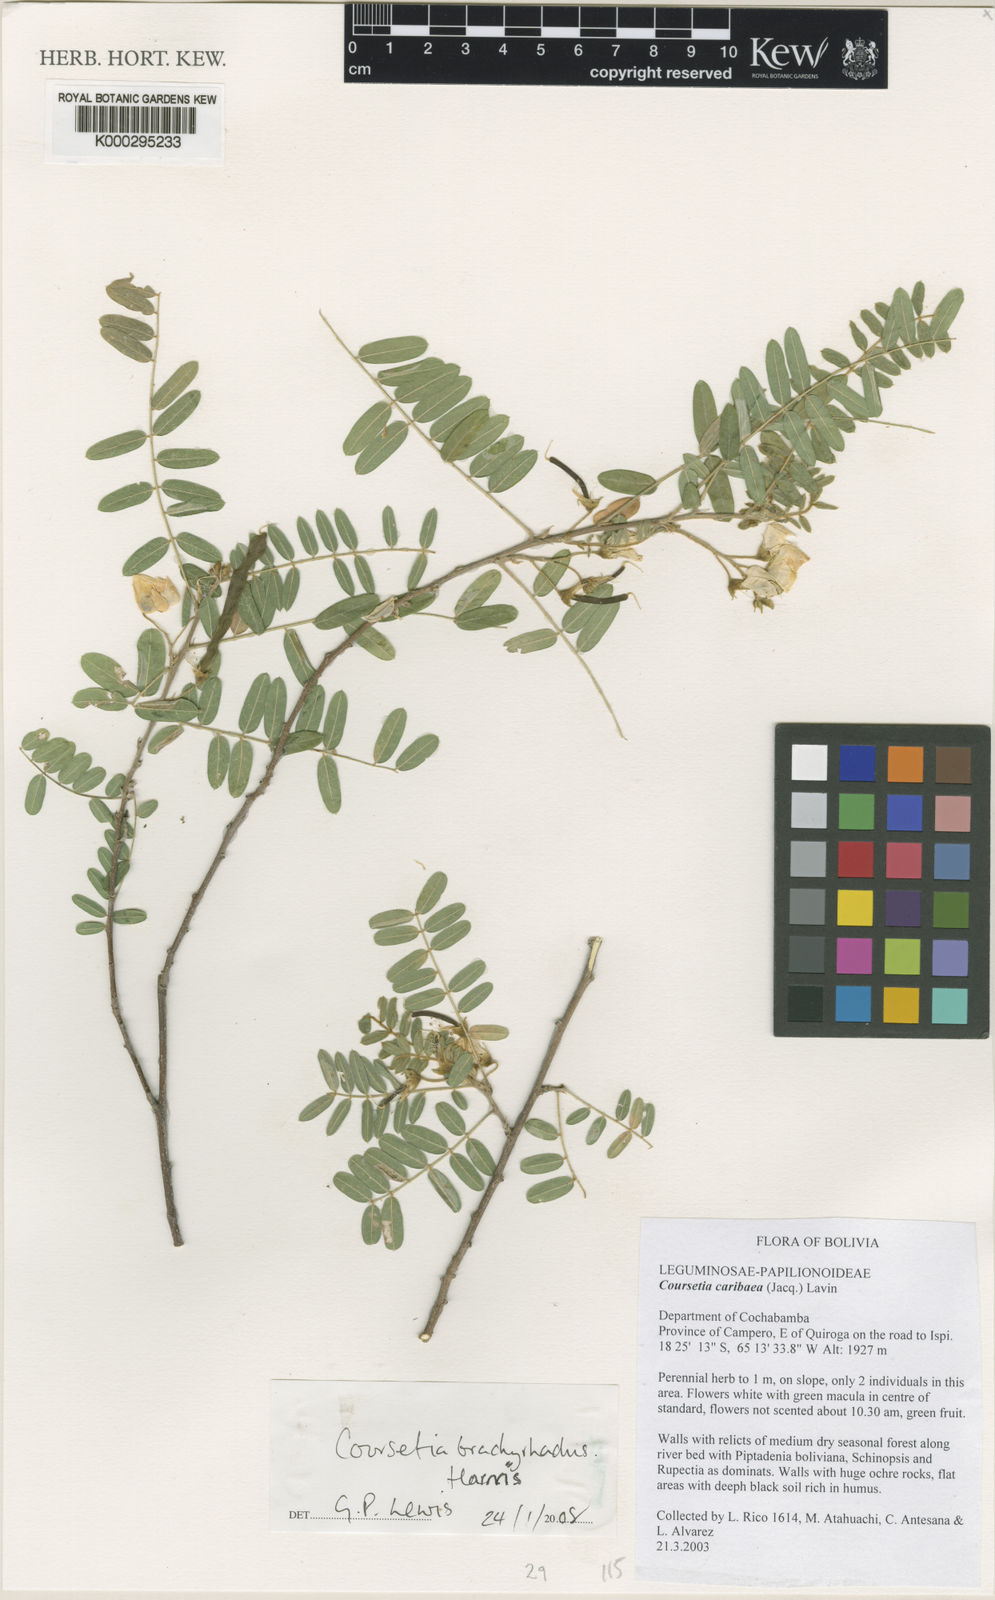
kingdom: Plantae
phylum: Tracheophyta
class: Magnoliopsida
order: Fabales
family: Fabaceae
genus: Coursetia
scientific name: Coursetia caribaea
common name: Anil falso
